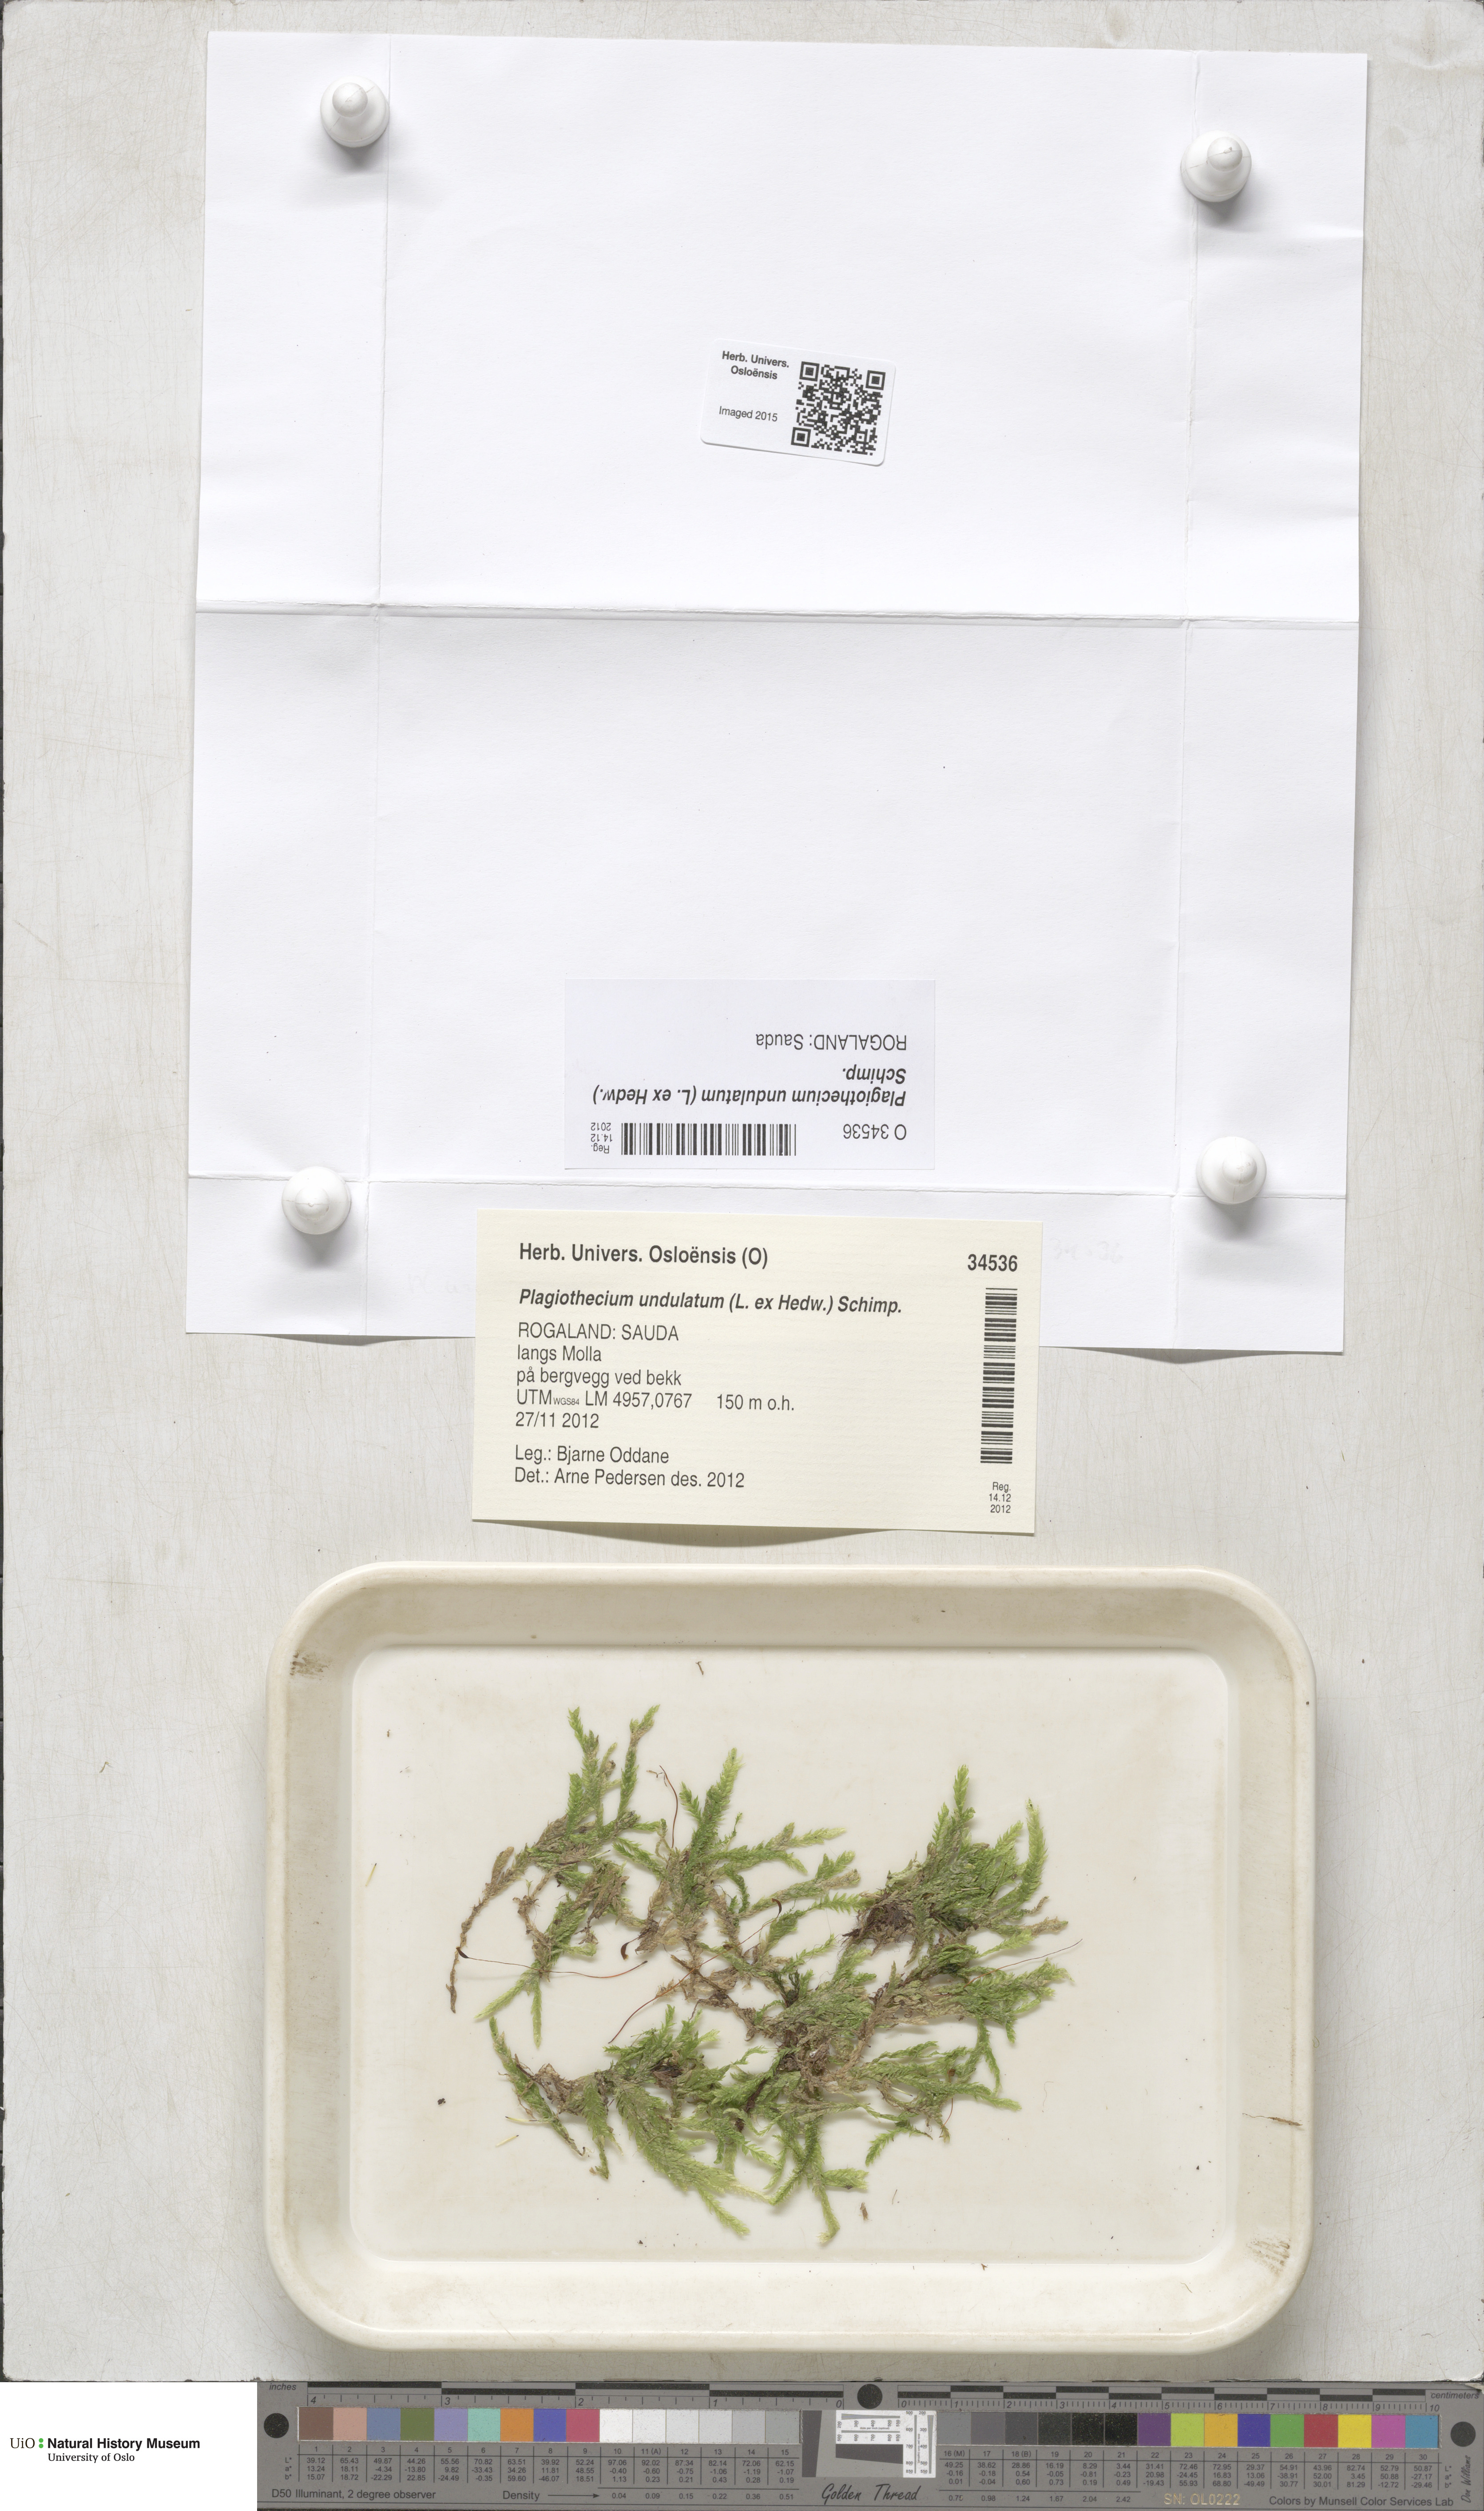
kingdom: Plantae
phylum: Bryophyta
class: Bryopsida
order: Hypnales
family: Plagiotheciaceae
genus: Plagiothecium
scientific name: Plagiothecium undulatum
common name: Waved silk-moss
